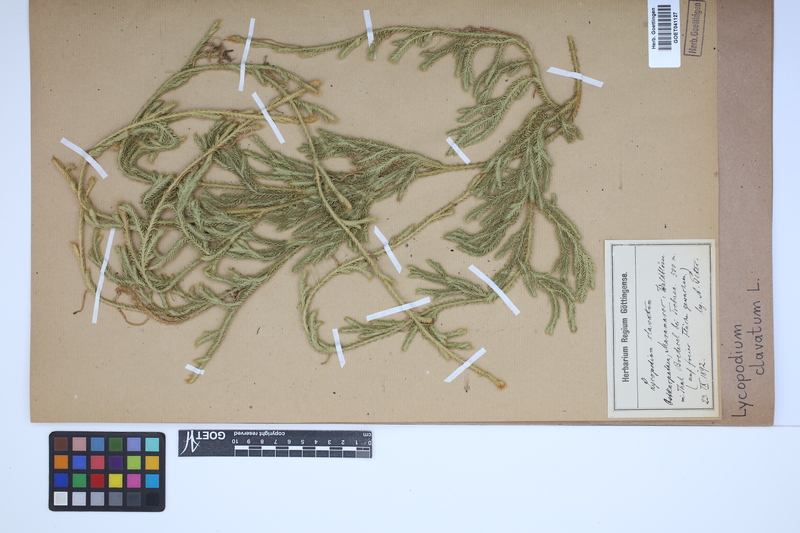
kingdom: Plantae
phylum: Tracheophyta
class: Lycopodiopsida
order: Lycopodiales
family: Lycopodiaceae
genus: Lycopodium
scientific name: Lycopodium clavatum
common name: Stag's-horn clubmoss
